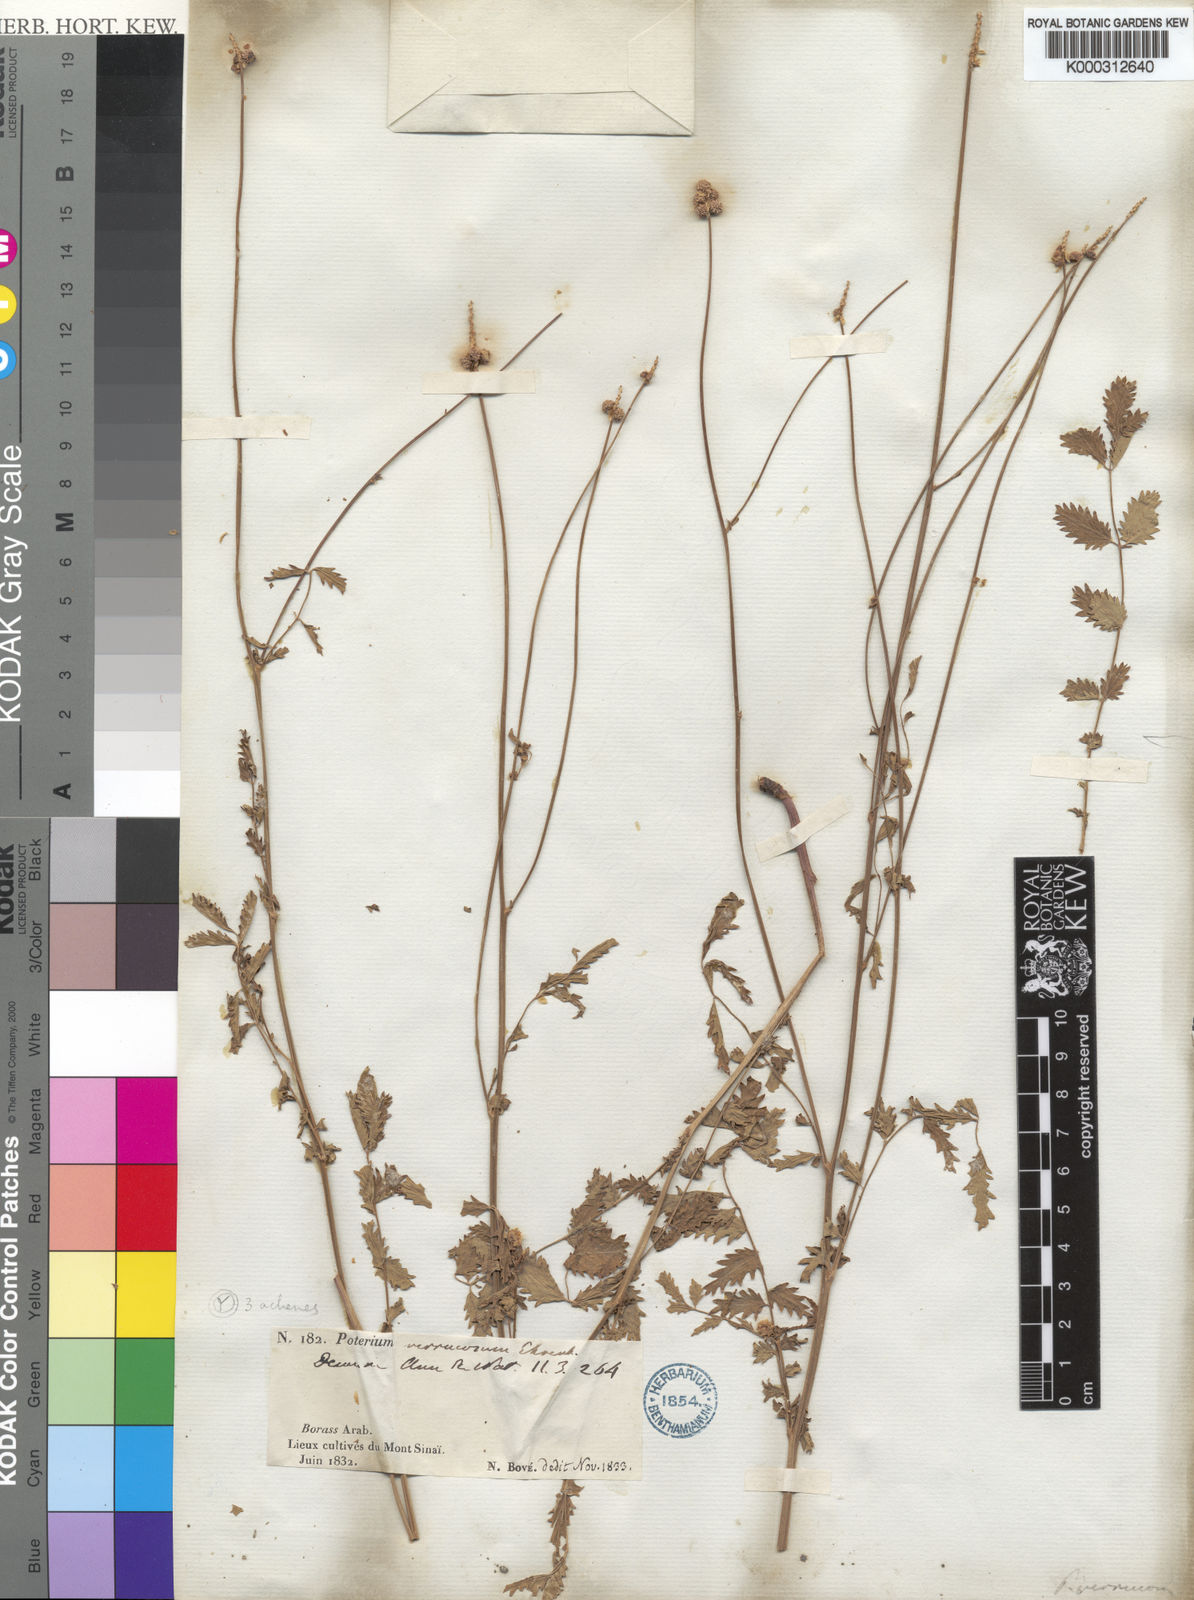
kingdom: Plantae
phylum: Tracheophyta
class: Magnoliopsida
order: Rosales
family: Rosaceae
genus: Poterium
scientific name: Poterium
